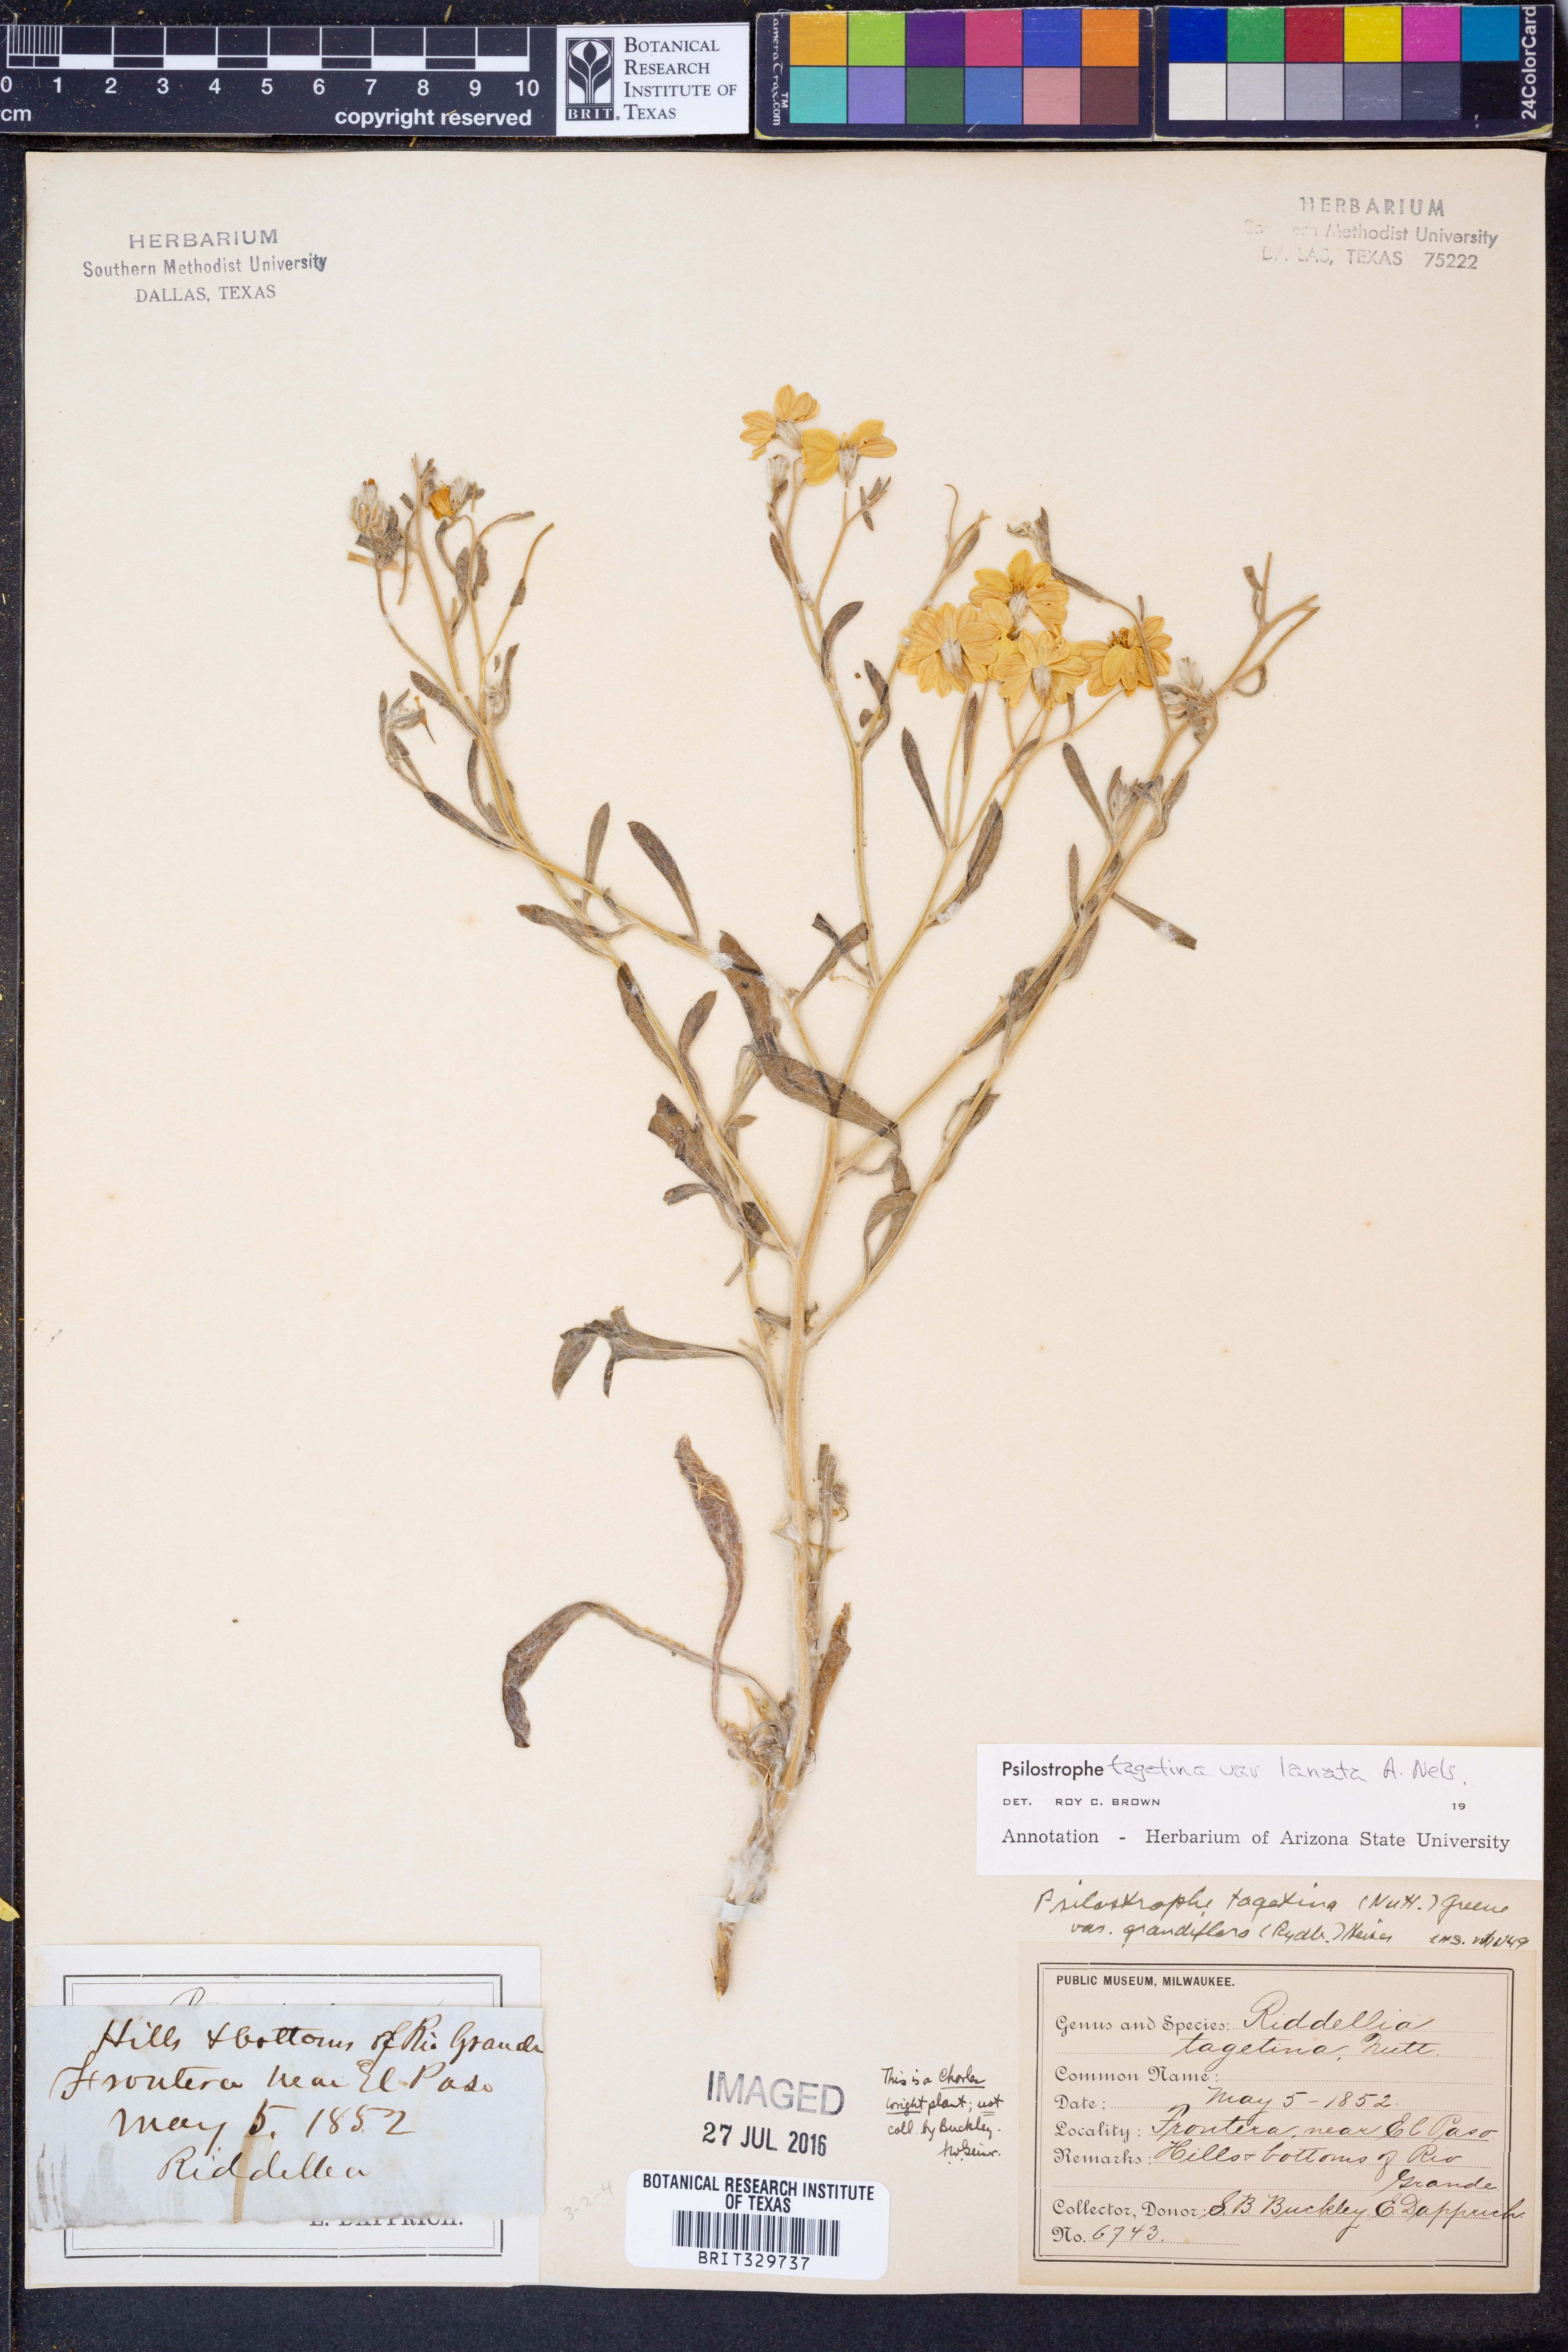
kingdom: Plantae
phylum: Tracheophyta
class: Magnoliopsida
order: Asterales
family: Asteraceae
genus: Psilostrophe
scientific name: Psilostrophe tagetina
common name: Marigold paper-flower
